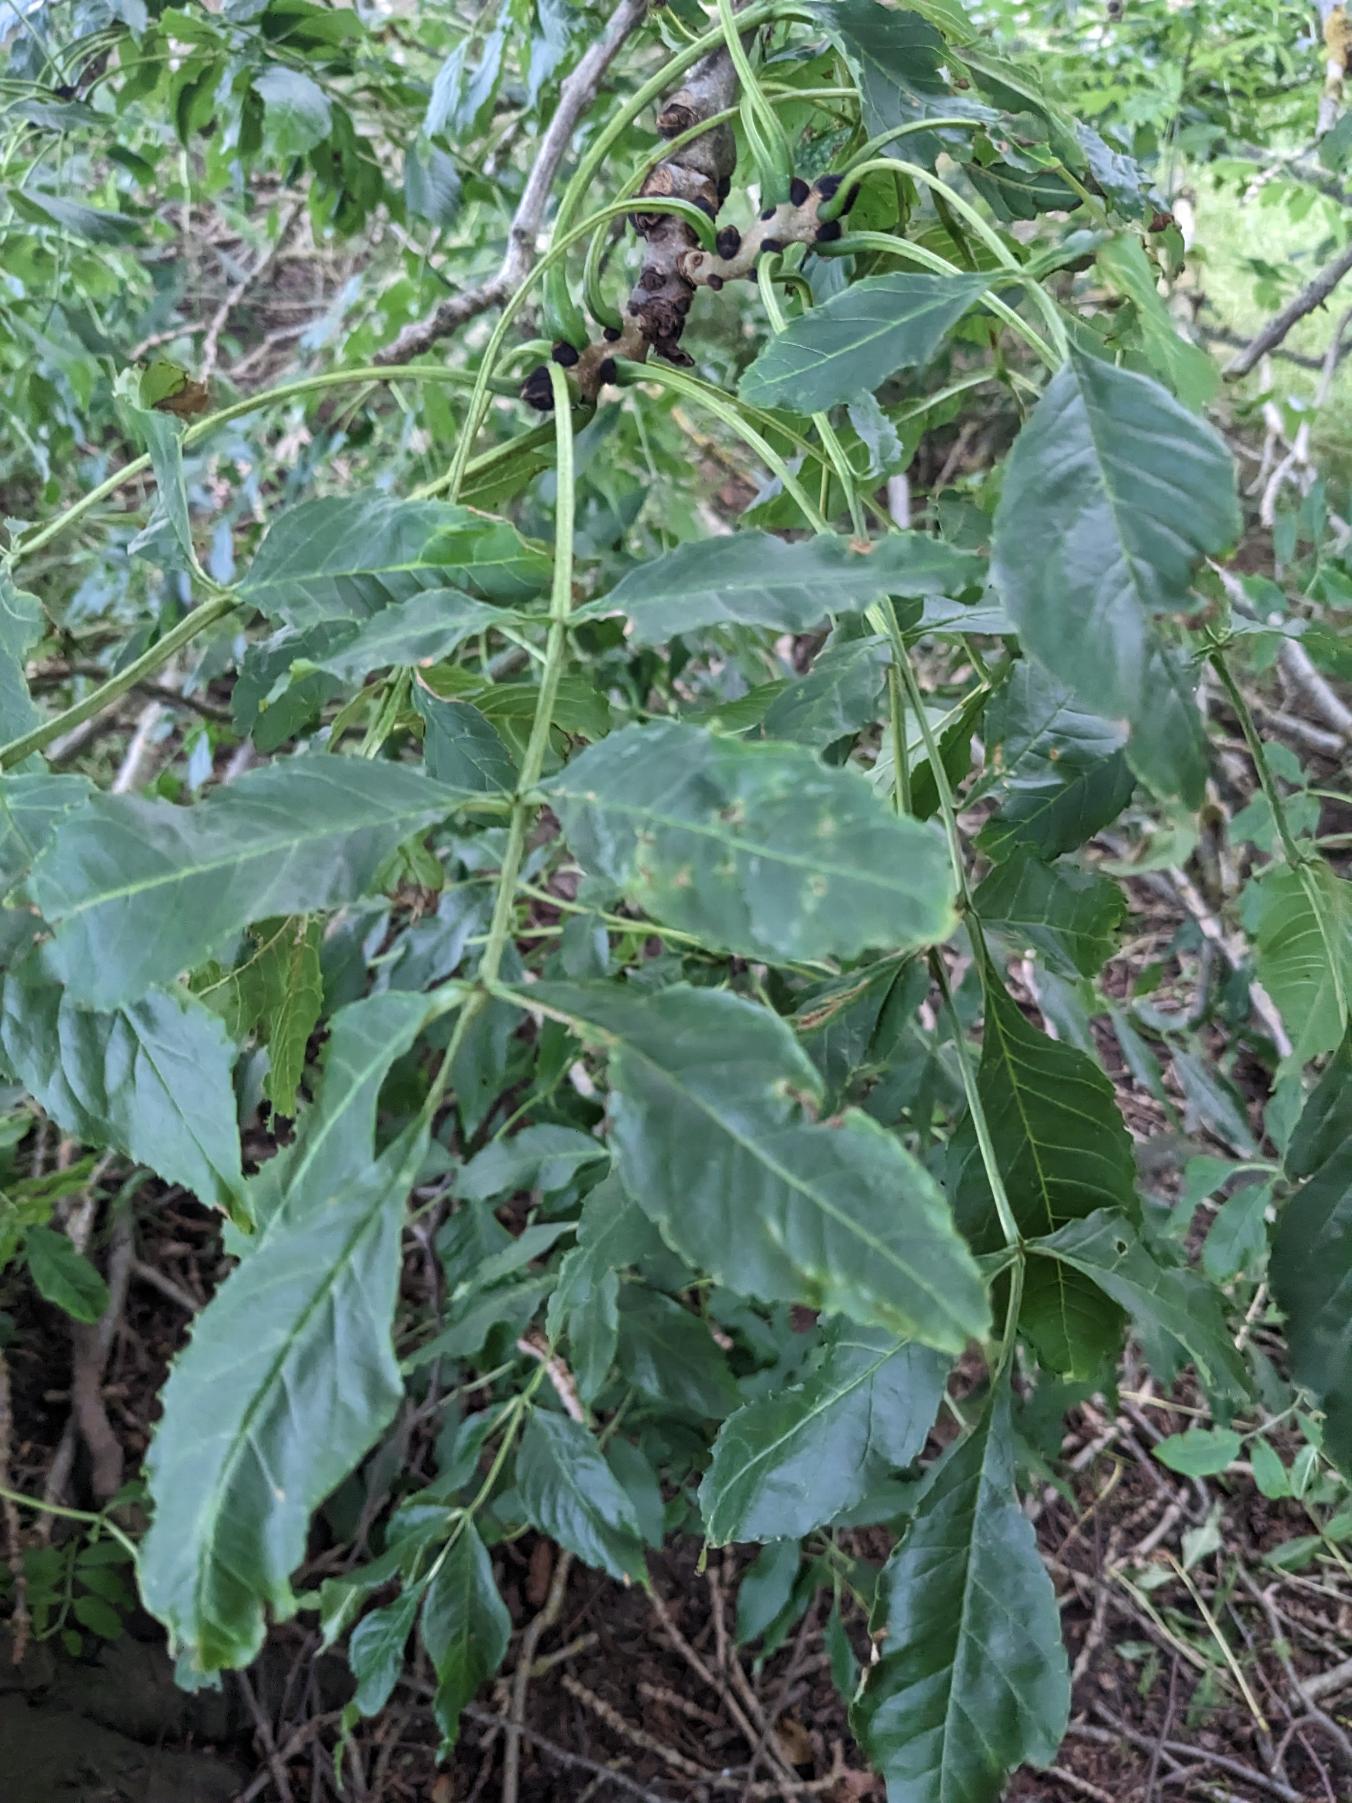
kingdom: Plantae
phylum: Tracheophyta
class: Magnoliopsida
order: Lamiales
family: Oleaceae
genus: Fraxinus
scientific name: Fraxinus excelsior
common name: Ask
